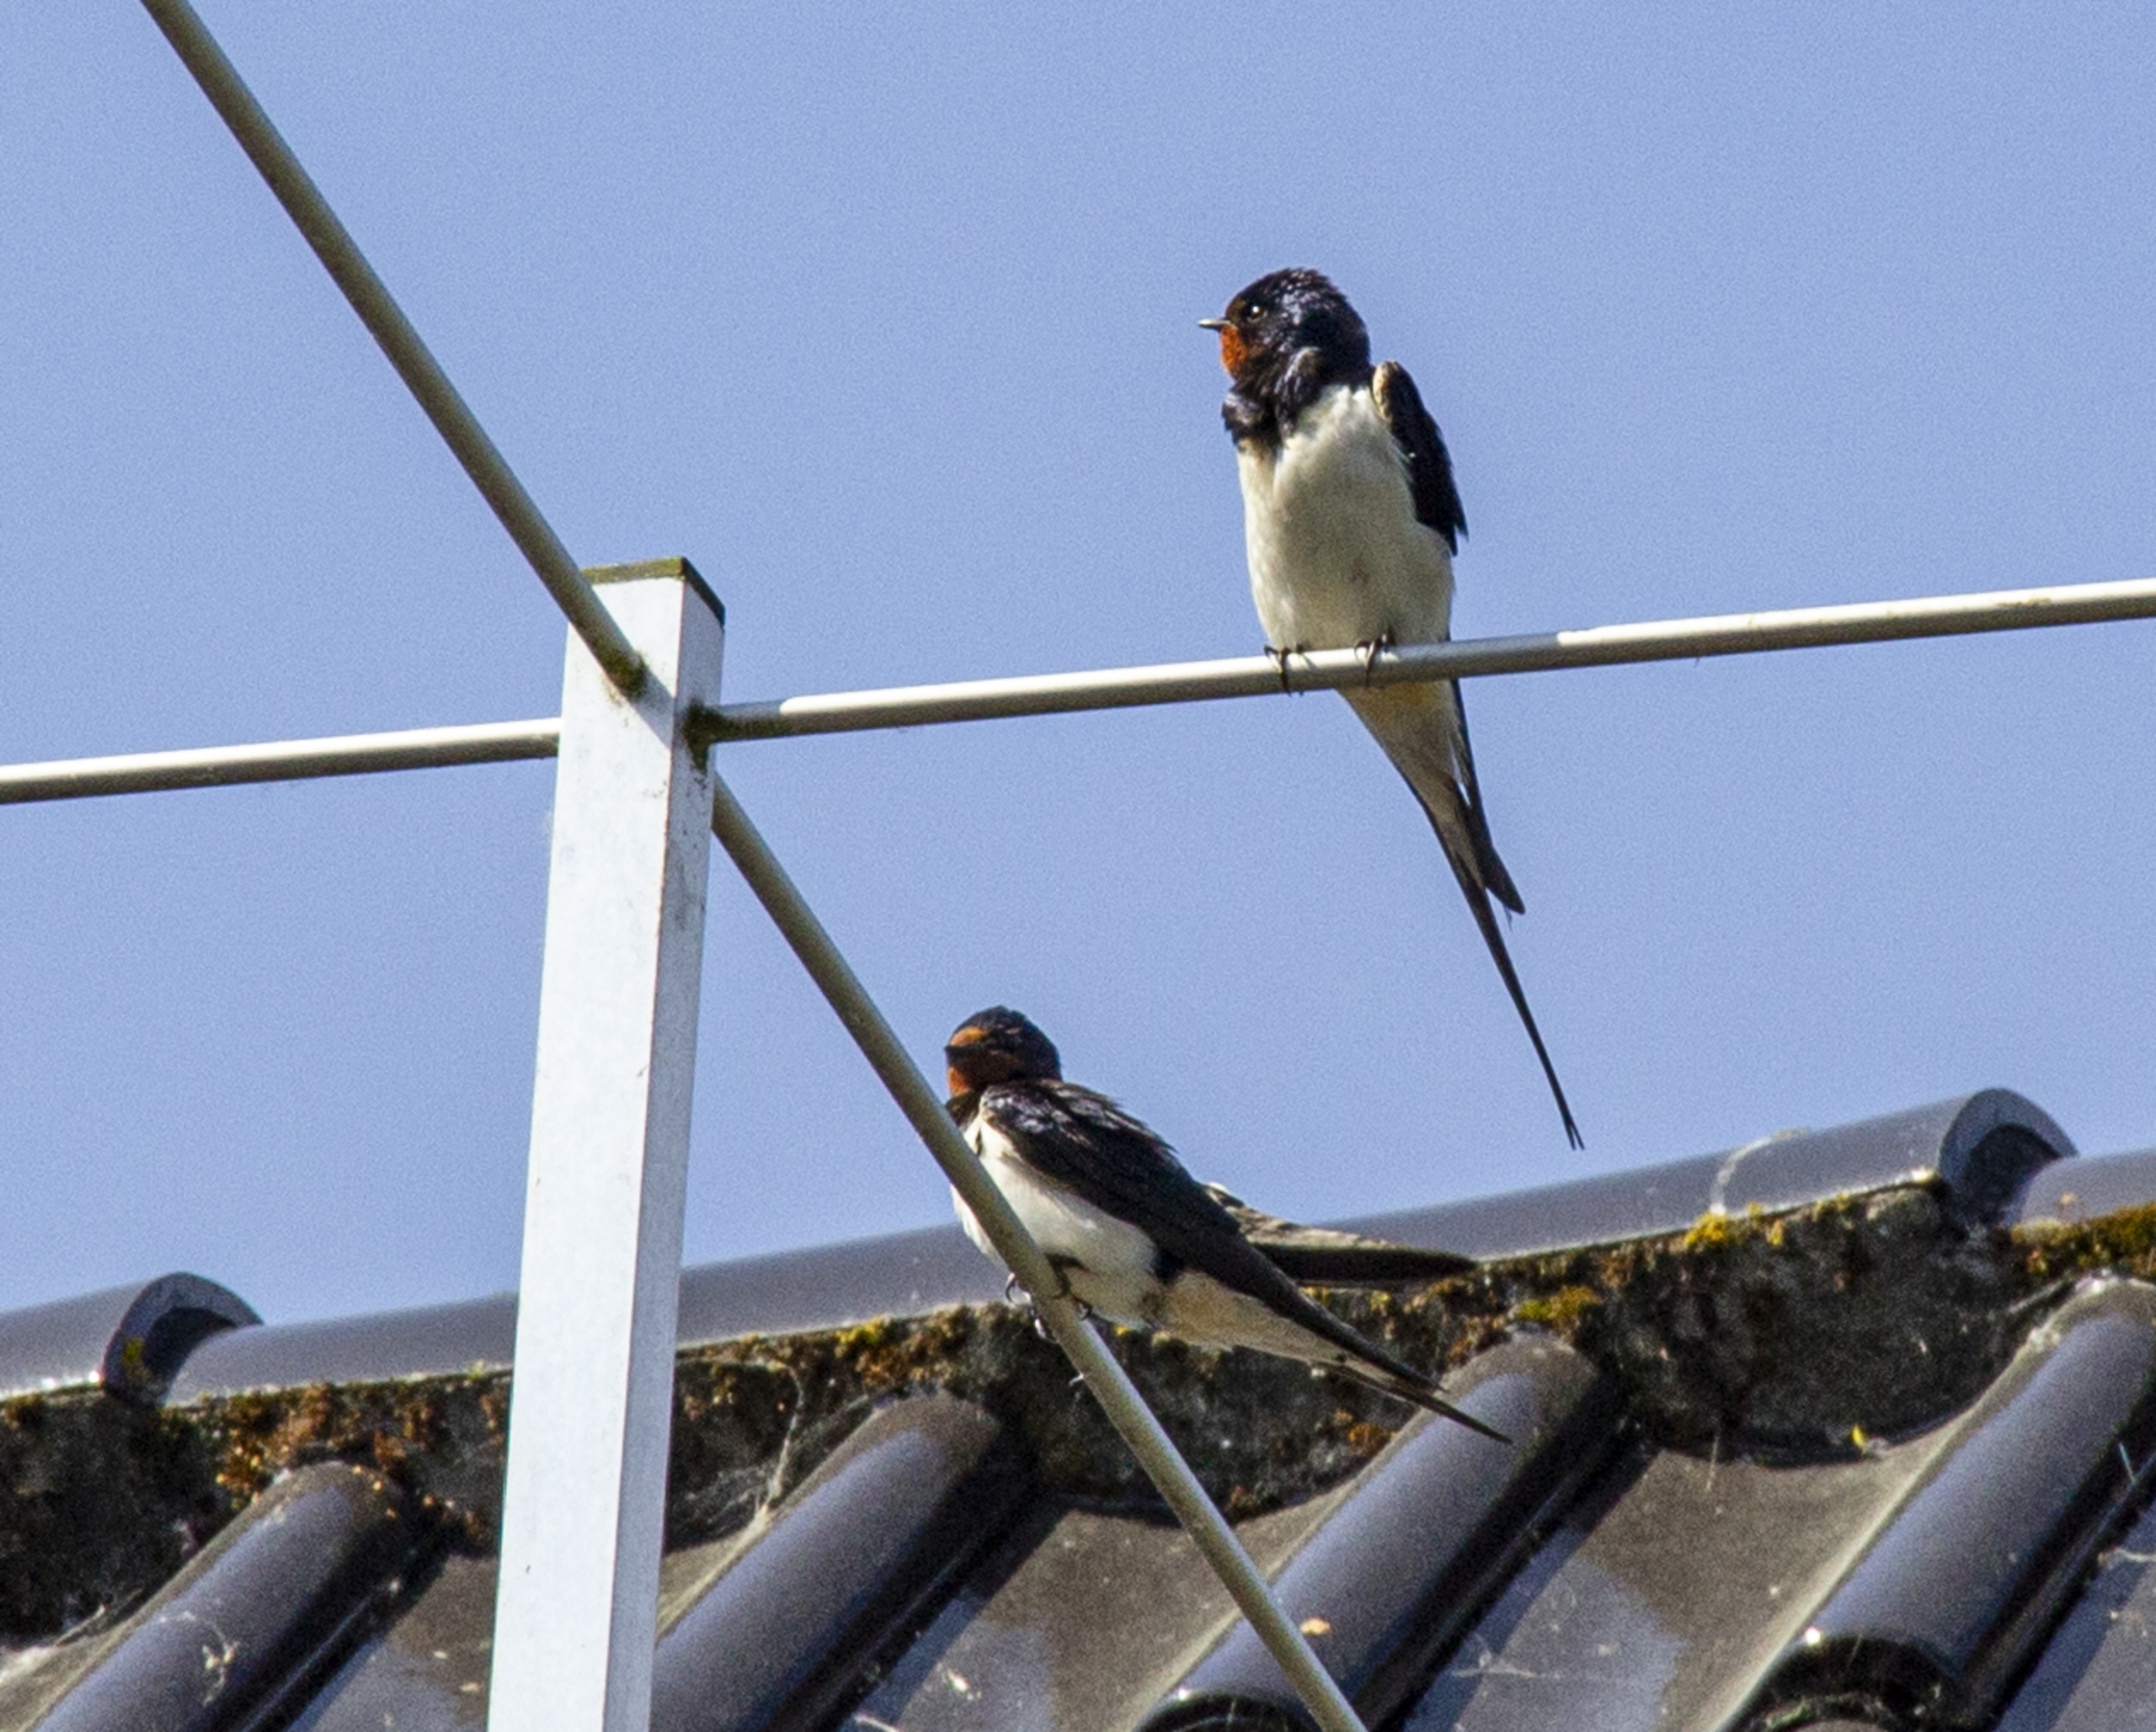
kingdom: Animalia
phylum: Chordata
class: Aves
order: Passeriformes
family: Hirundinidae
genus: Hirundo
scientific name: Hirundo rustica
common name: Landsvale
